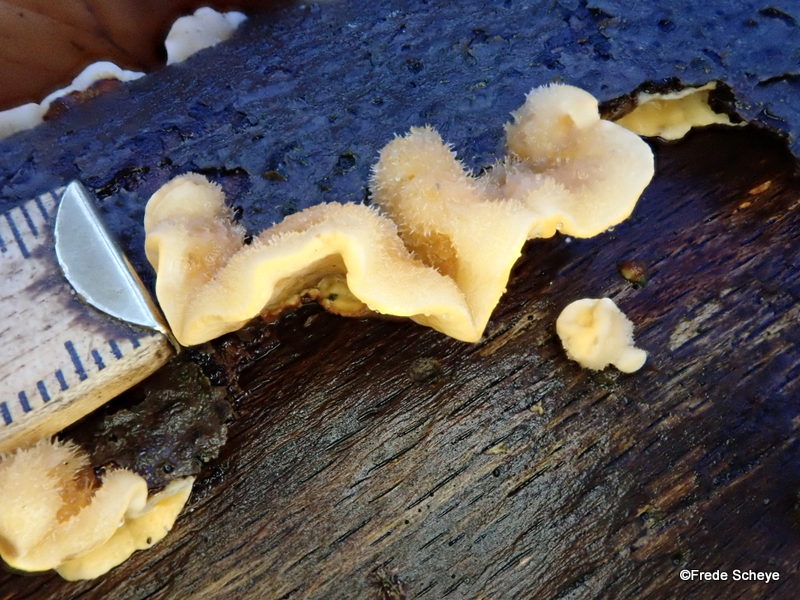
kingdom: Fungi
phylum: Basidiomycota
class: Agaricomycetes
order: Russulales
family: Stereaceae
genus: Stereum
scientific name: Stereum hirsutum
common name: håret lædersvamp
